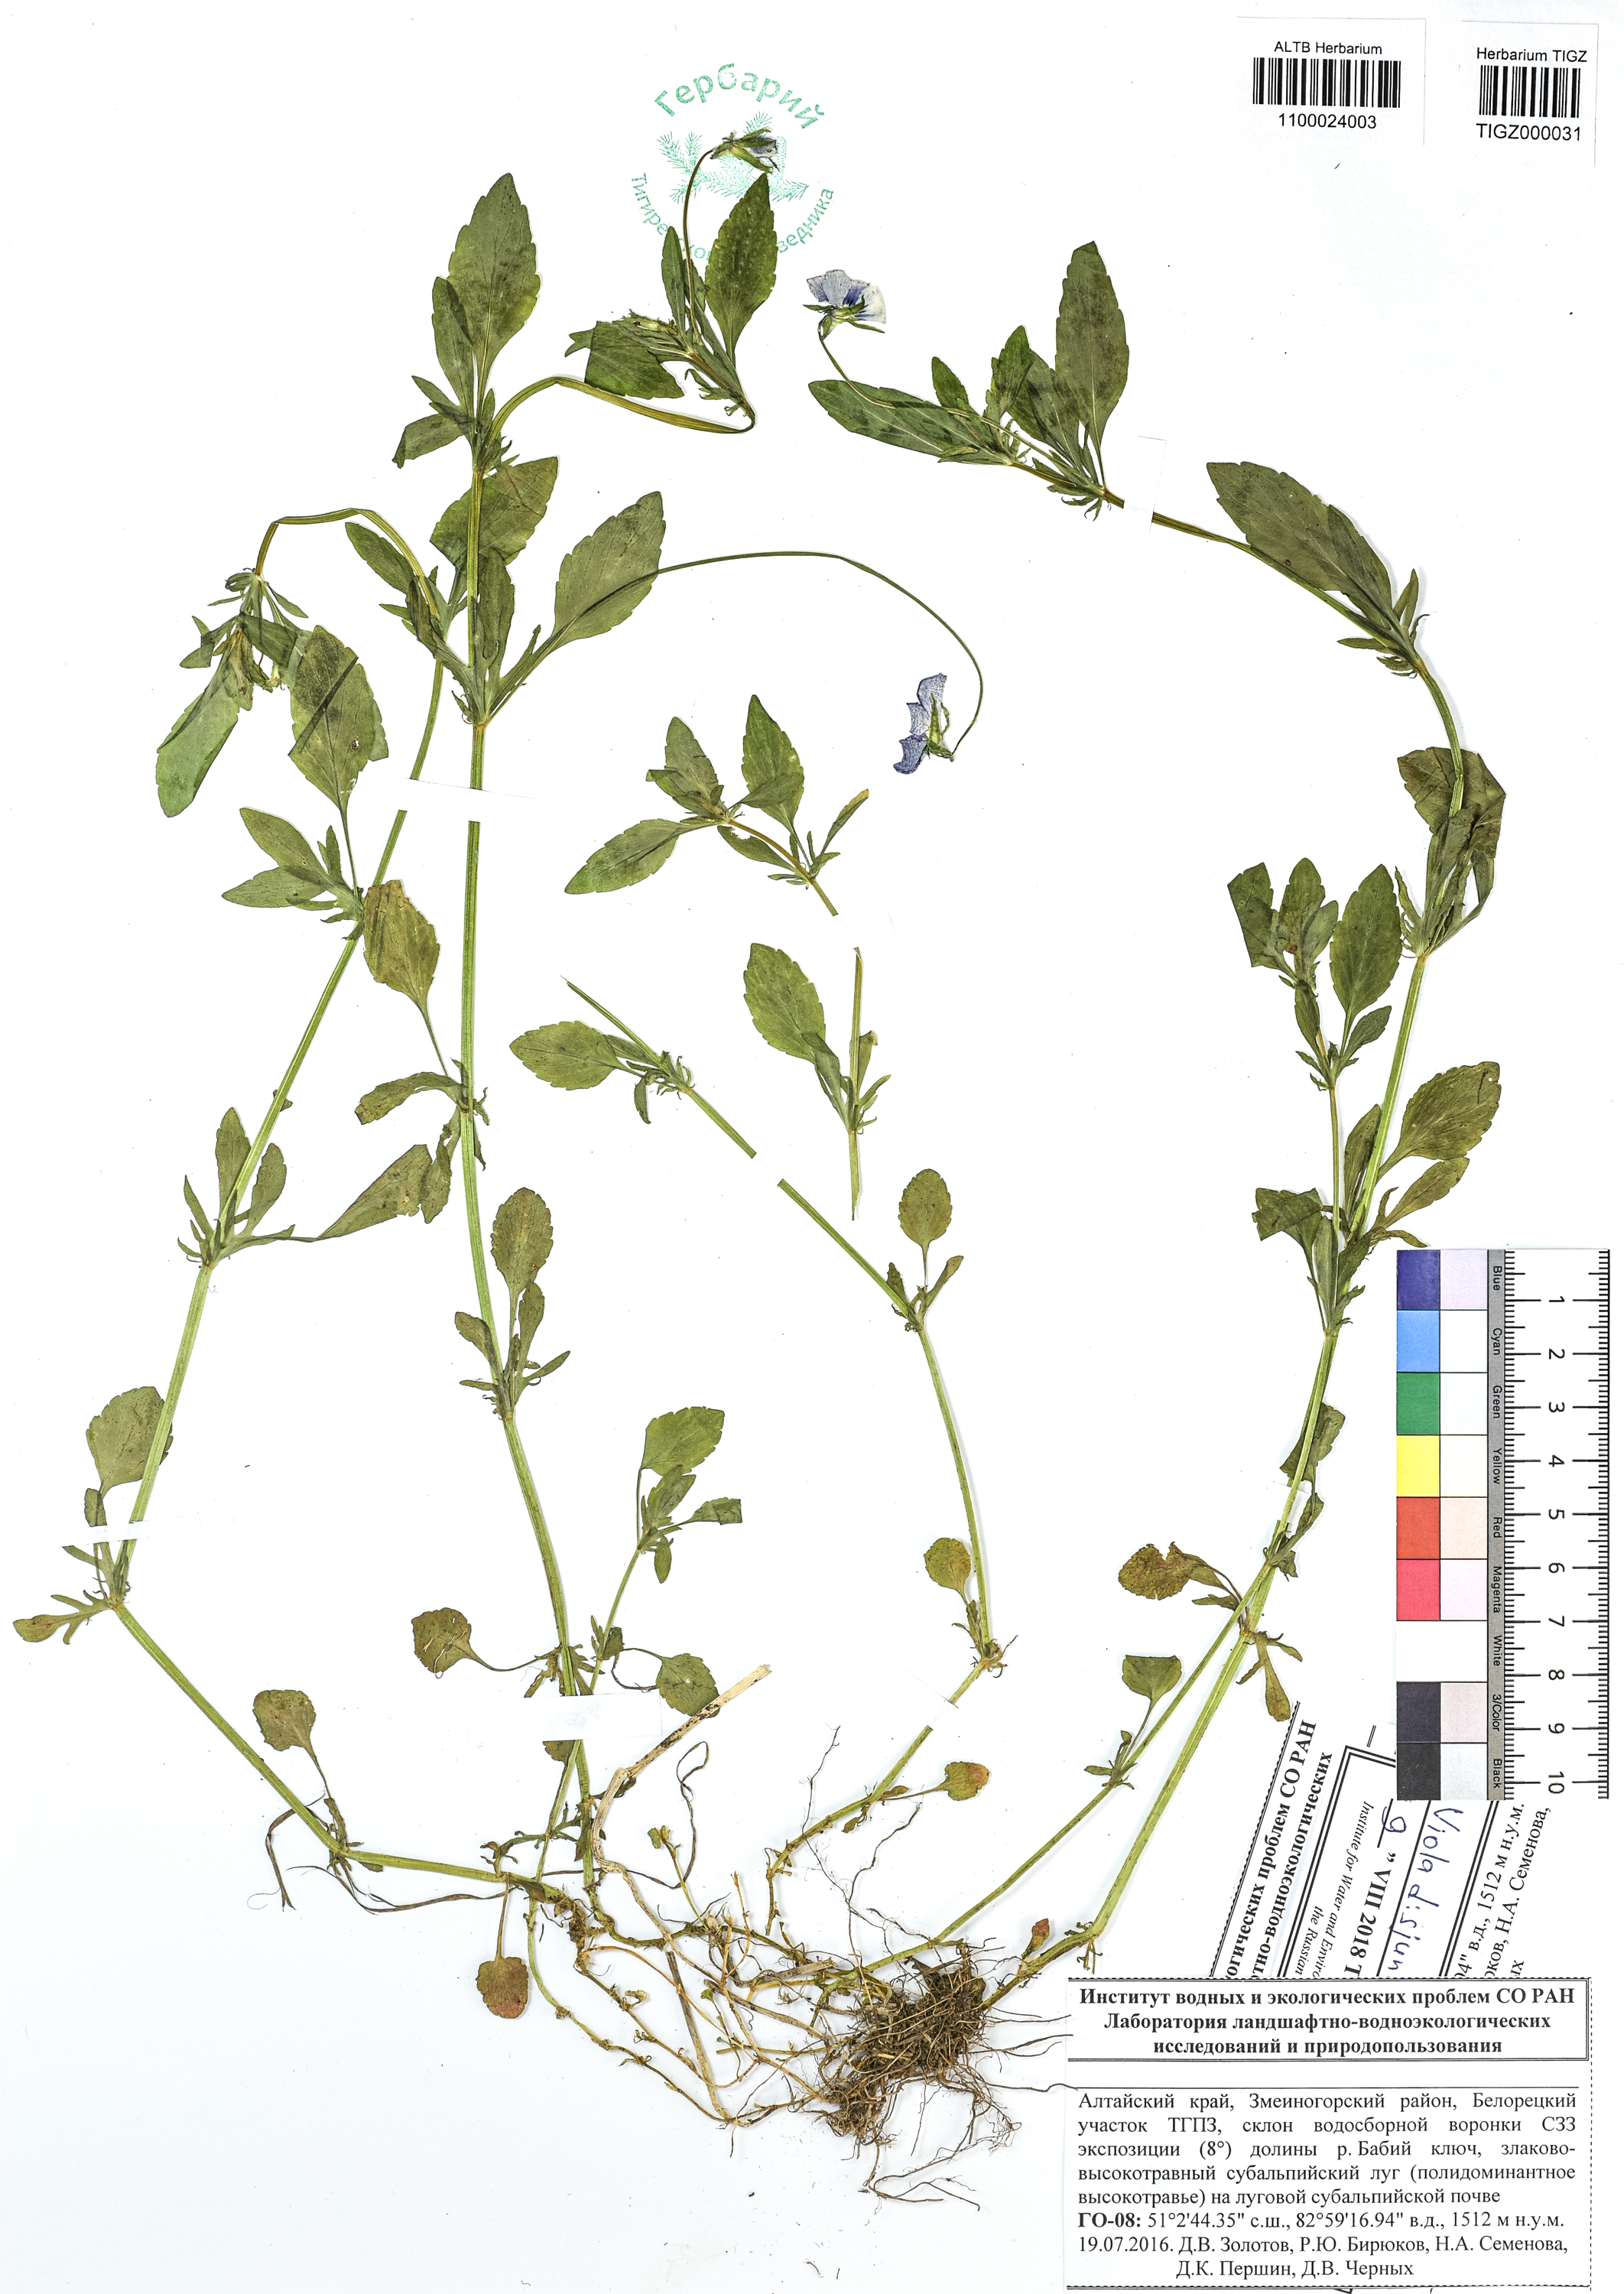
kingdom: Plantae
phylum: Tracheophyta
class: Magnoliopsida
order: Malpighiales
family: Violaceae
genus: Viola
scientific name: Viola tricolor
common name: Pansy
